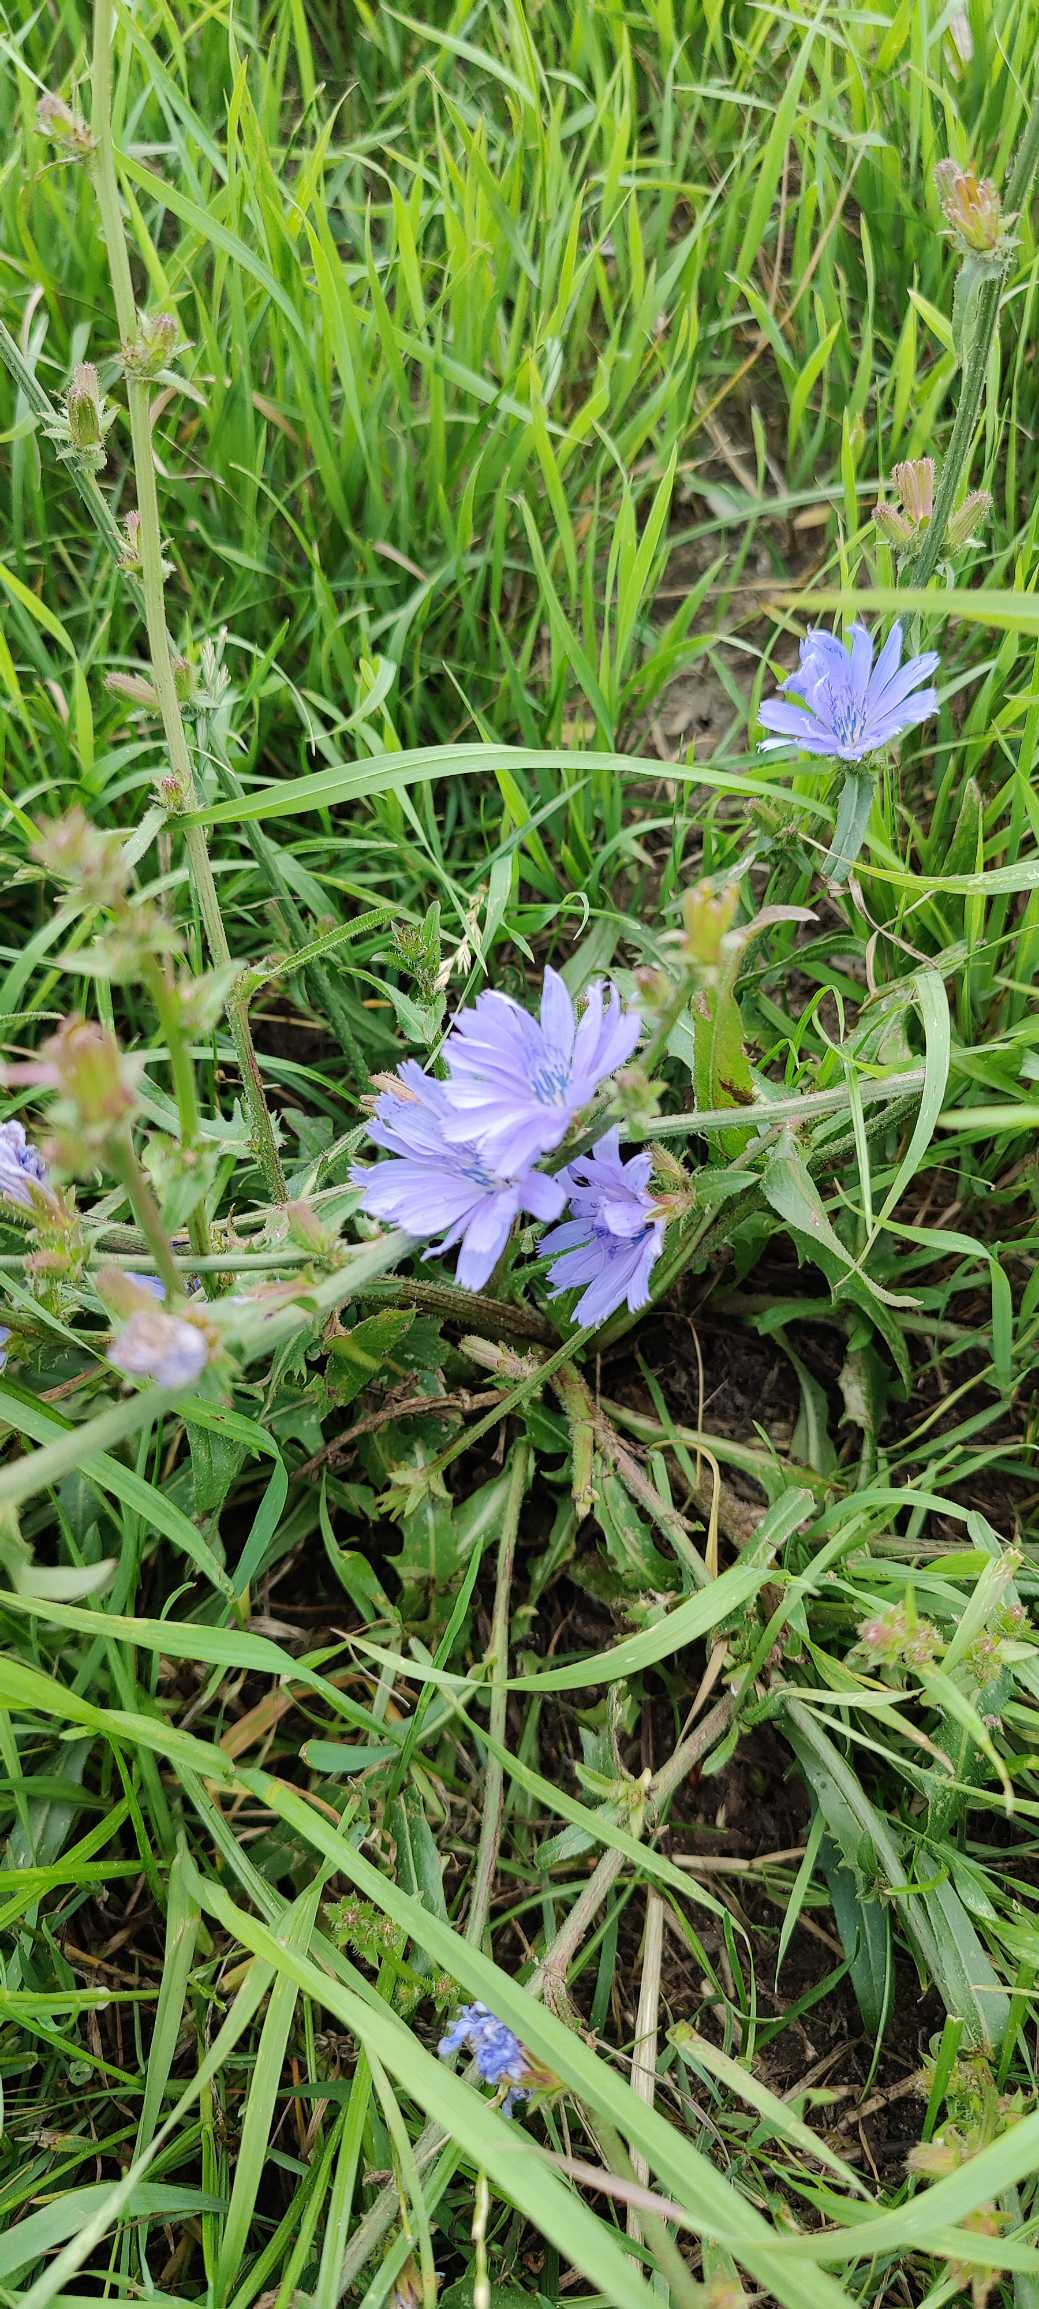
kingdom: Plantae
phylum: Tracheophyta
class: Magnoliopsida
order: Asterales
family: Asteraceae
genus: Cichorium
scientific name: Cichorium intybus
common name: Cikorie
